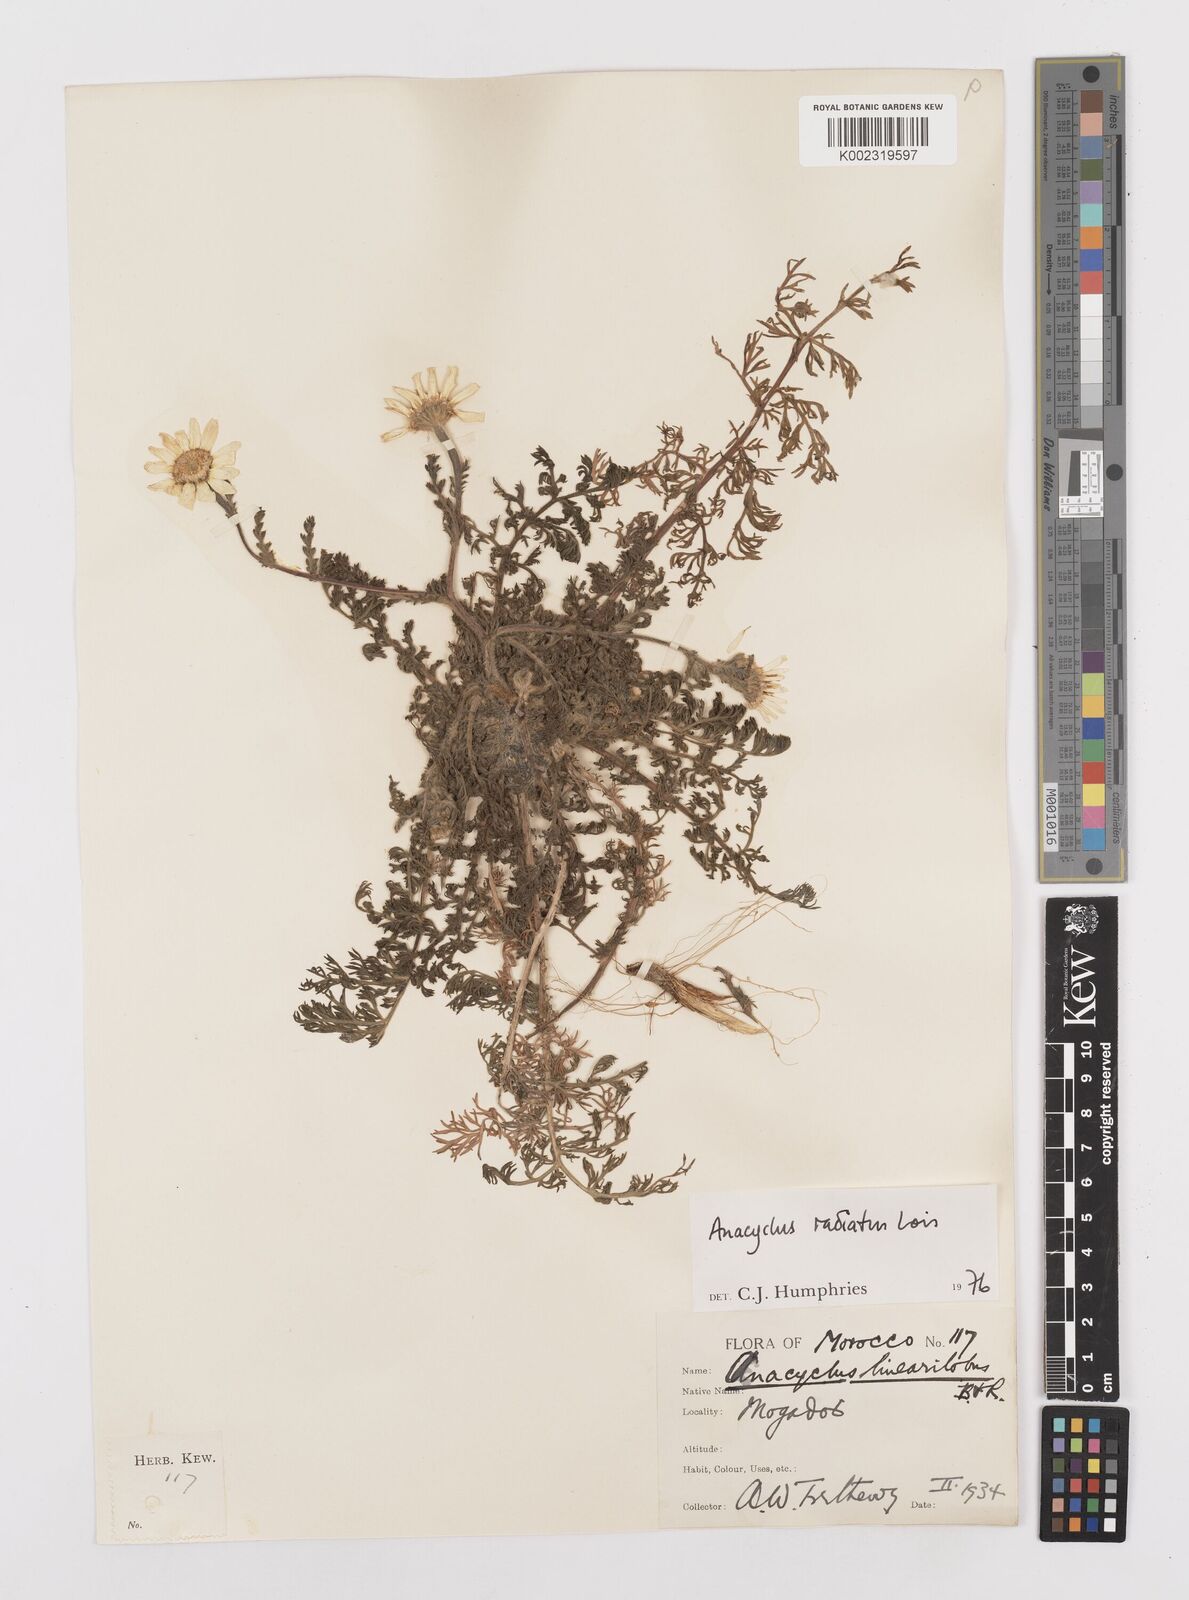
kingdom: Plantae
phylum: Tracheophyta
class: Magnoliopsida
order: Asterales
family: Asteraceae
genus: Anacyclus
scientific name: Anacyclus radiatus
